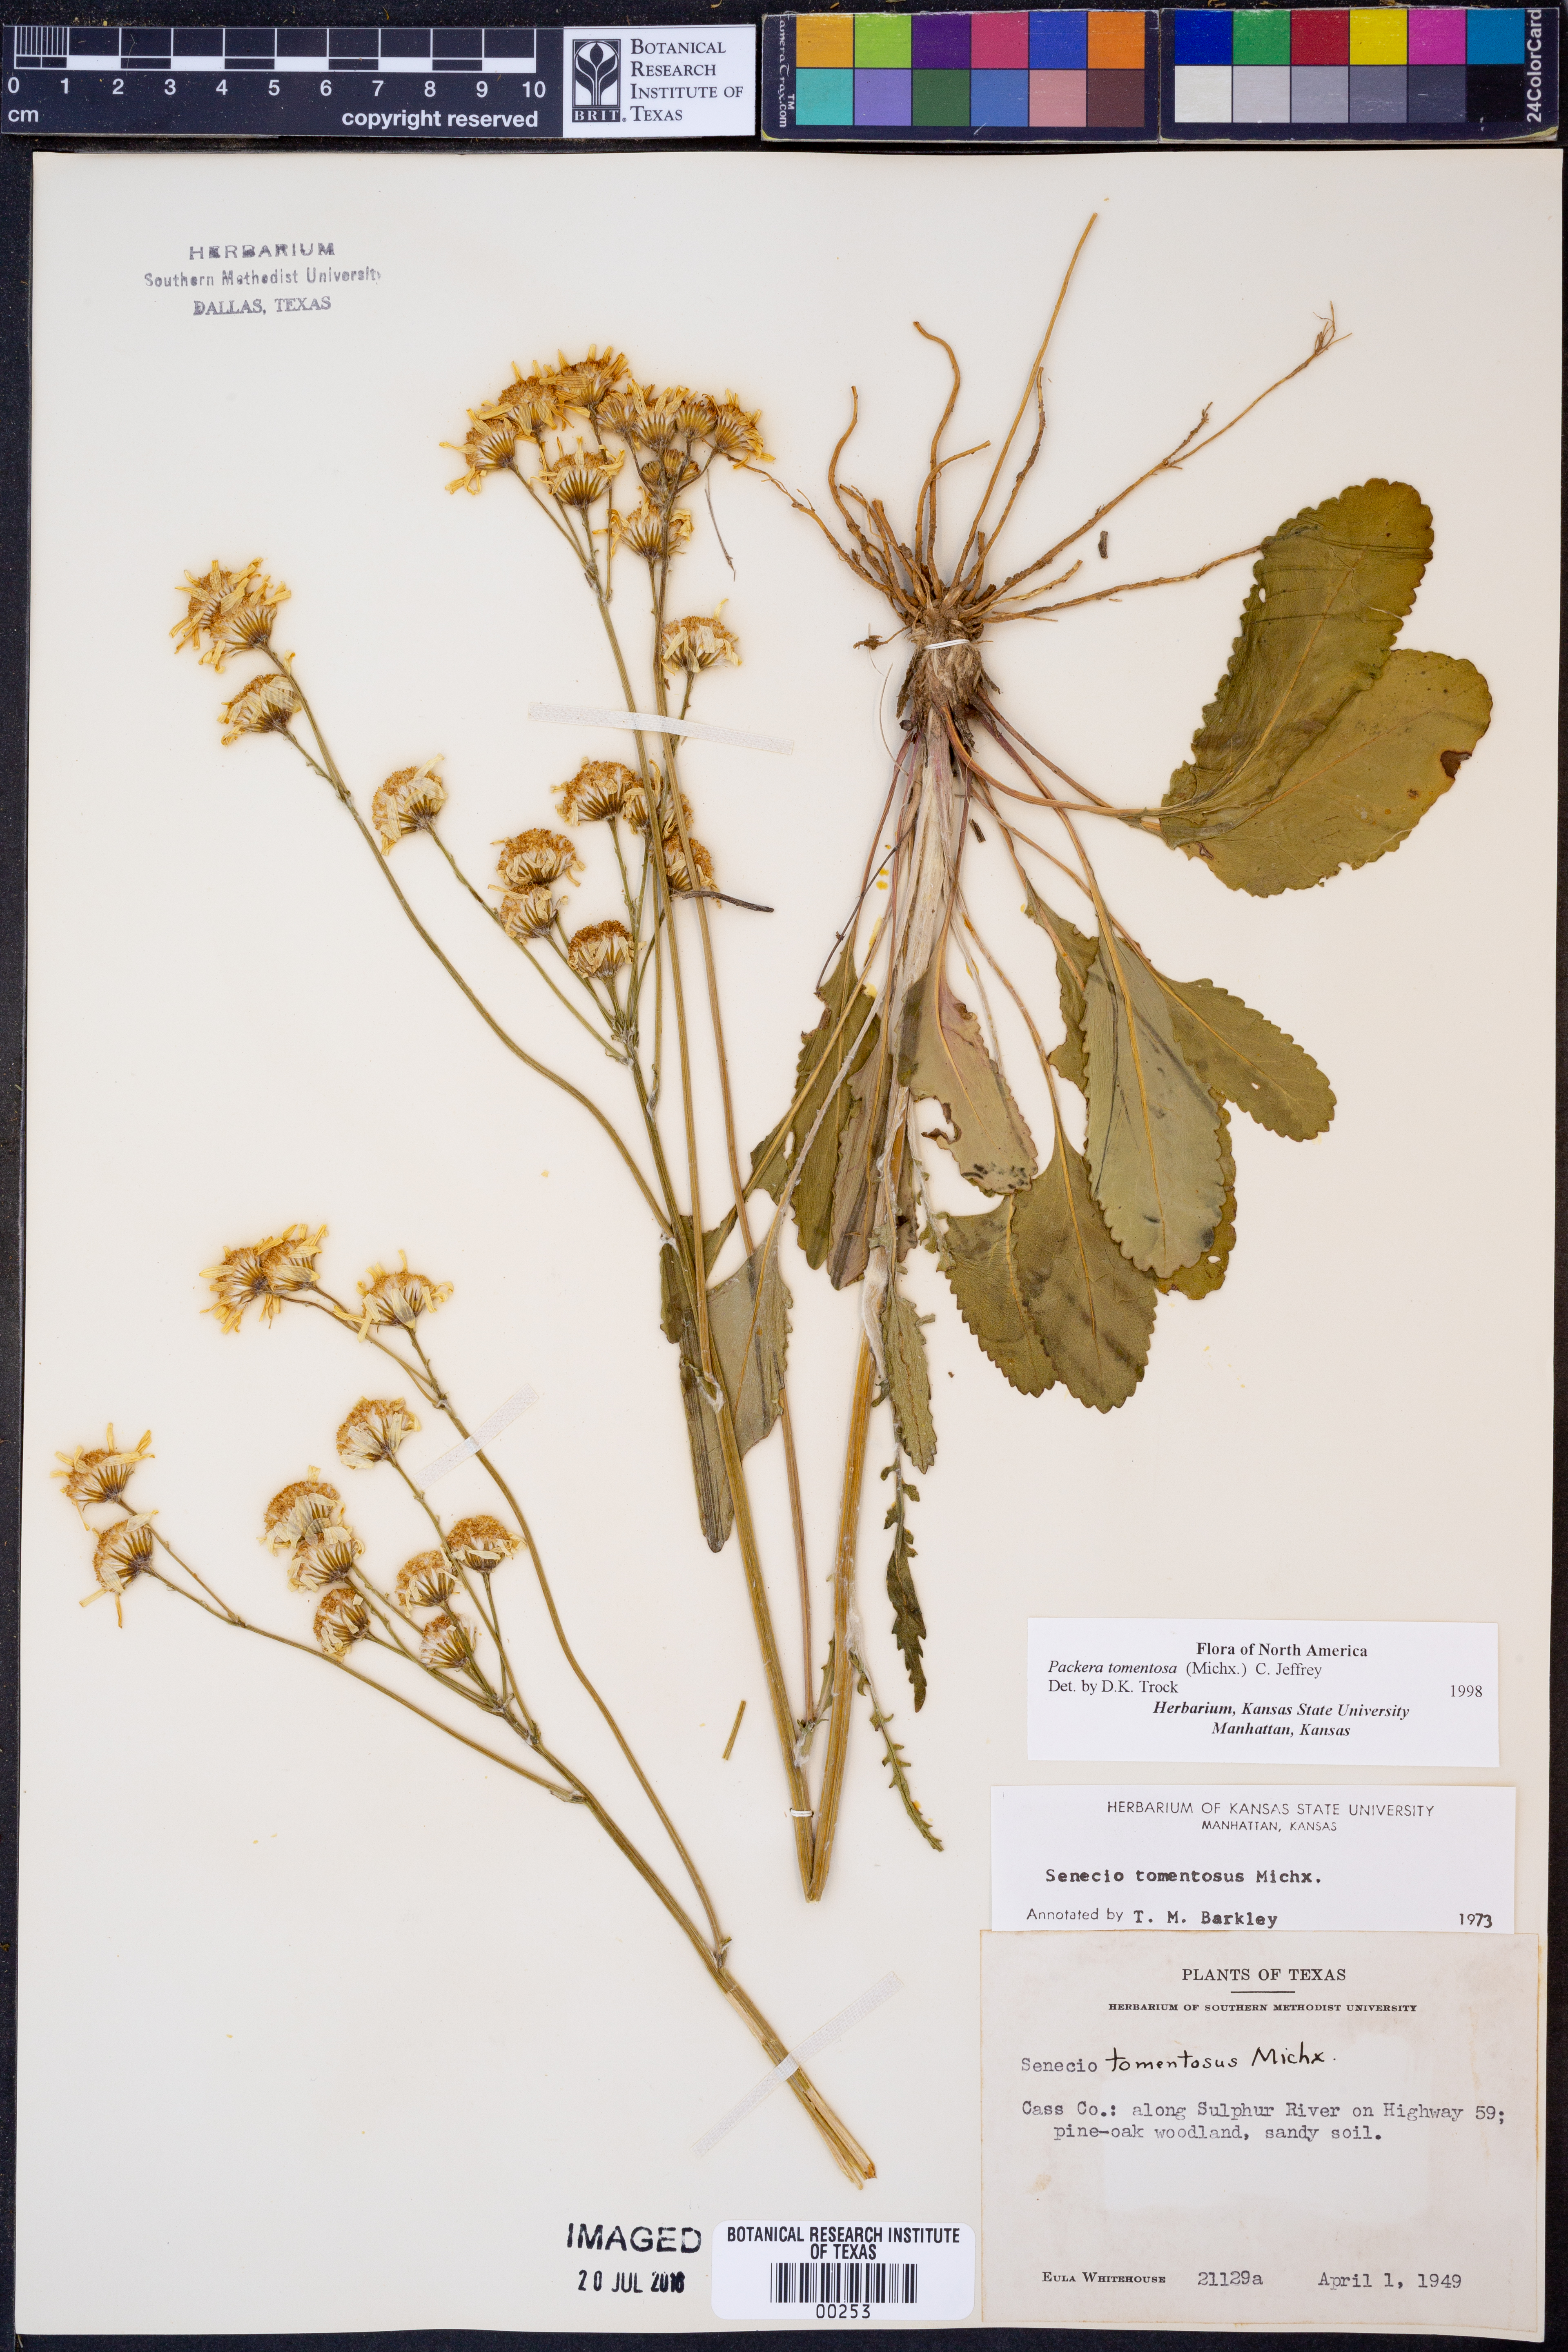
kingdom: Plantae
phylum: Tracheophyta
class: Magnoliopsida
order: Asterales
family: Asteraceae
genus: Packera
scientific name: Packera dubia
